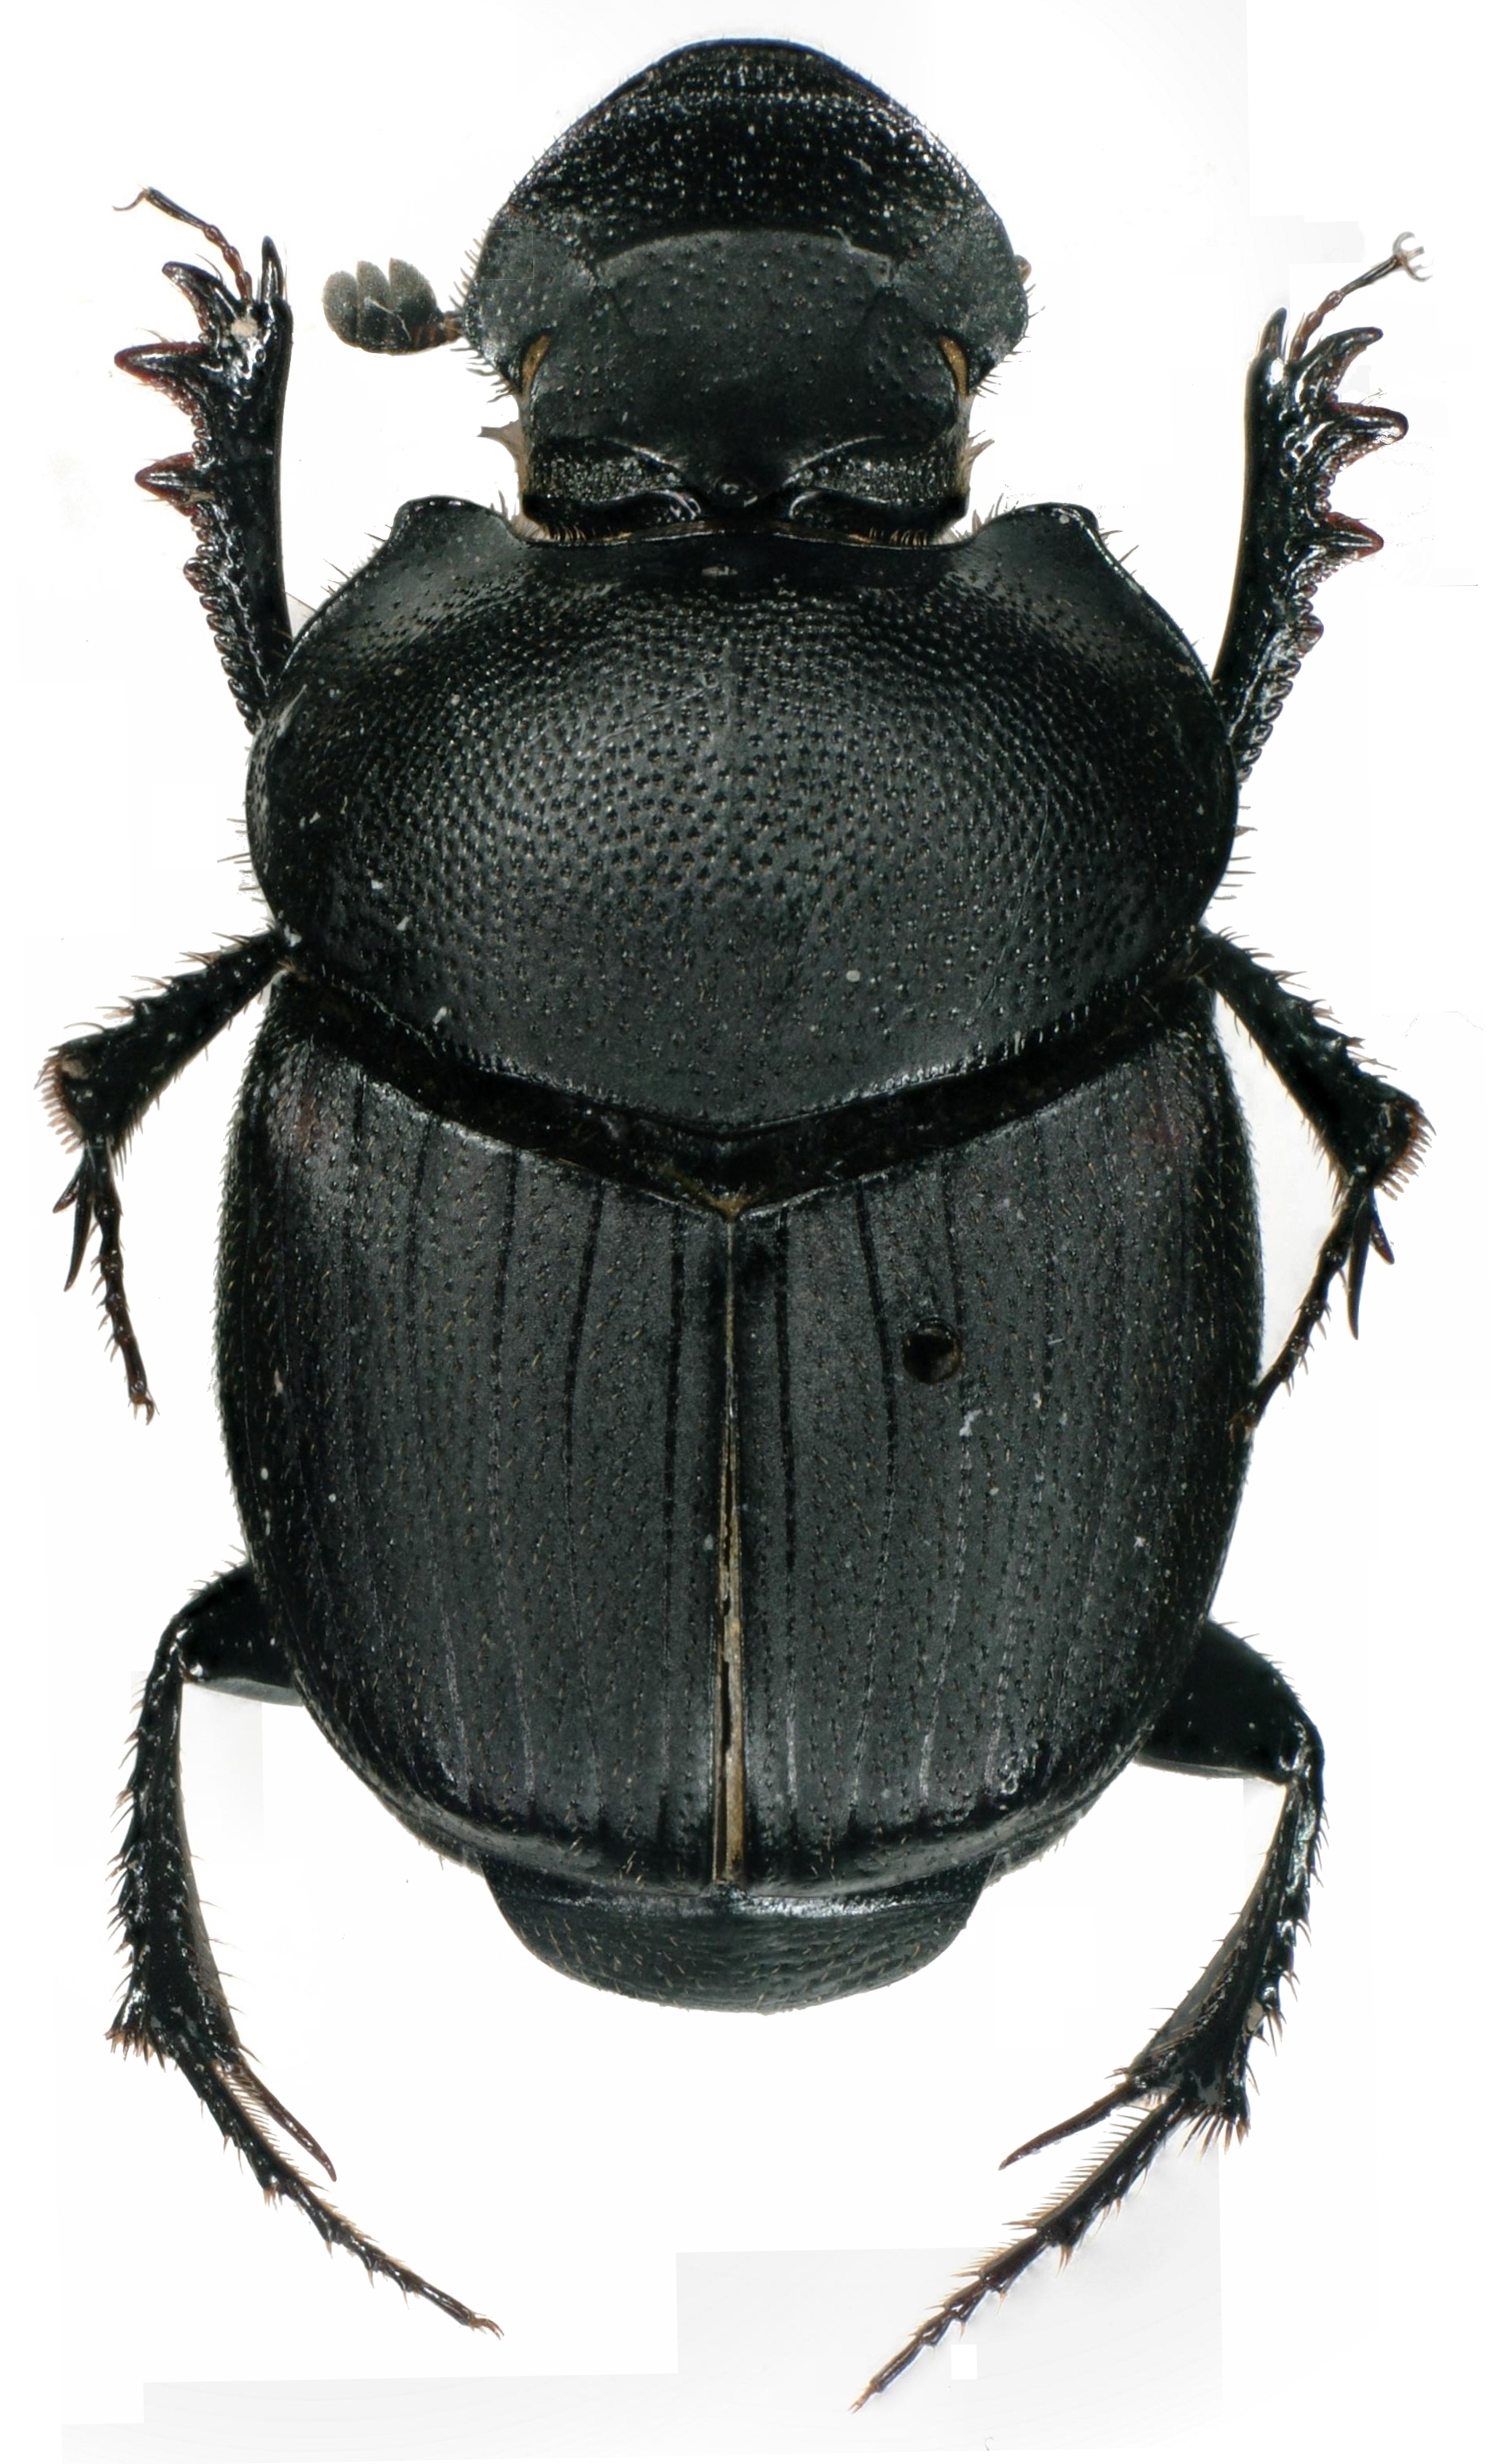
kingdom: Animalia
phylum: Arthropoda
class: Insecta
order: Coleoptera
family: Scarabaeidae
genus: Onthophagus
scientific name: Onthophagus verticicornis
